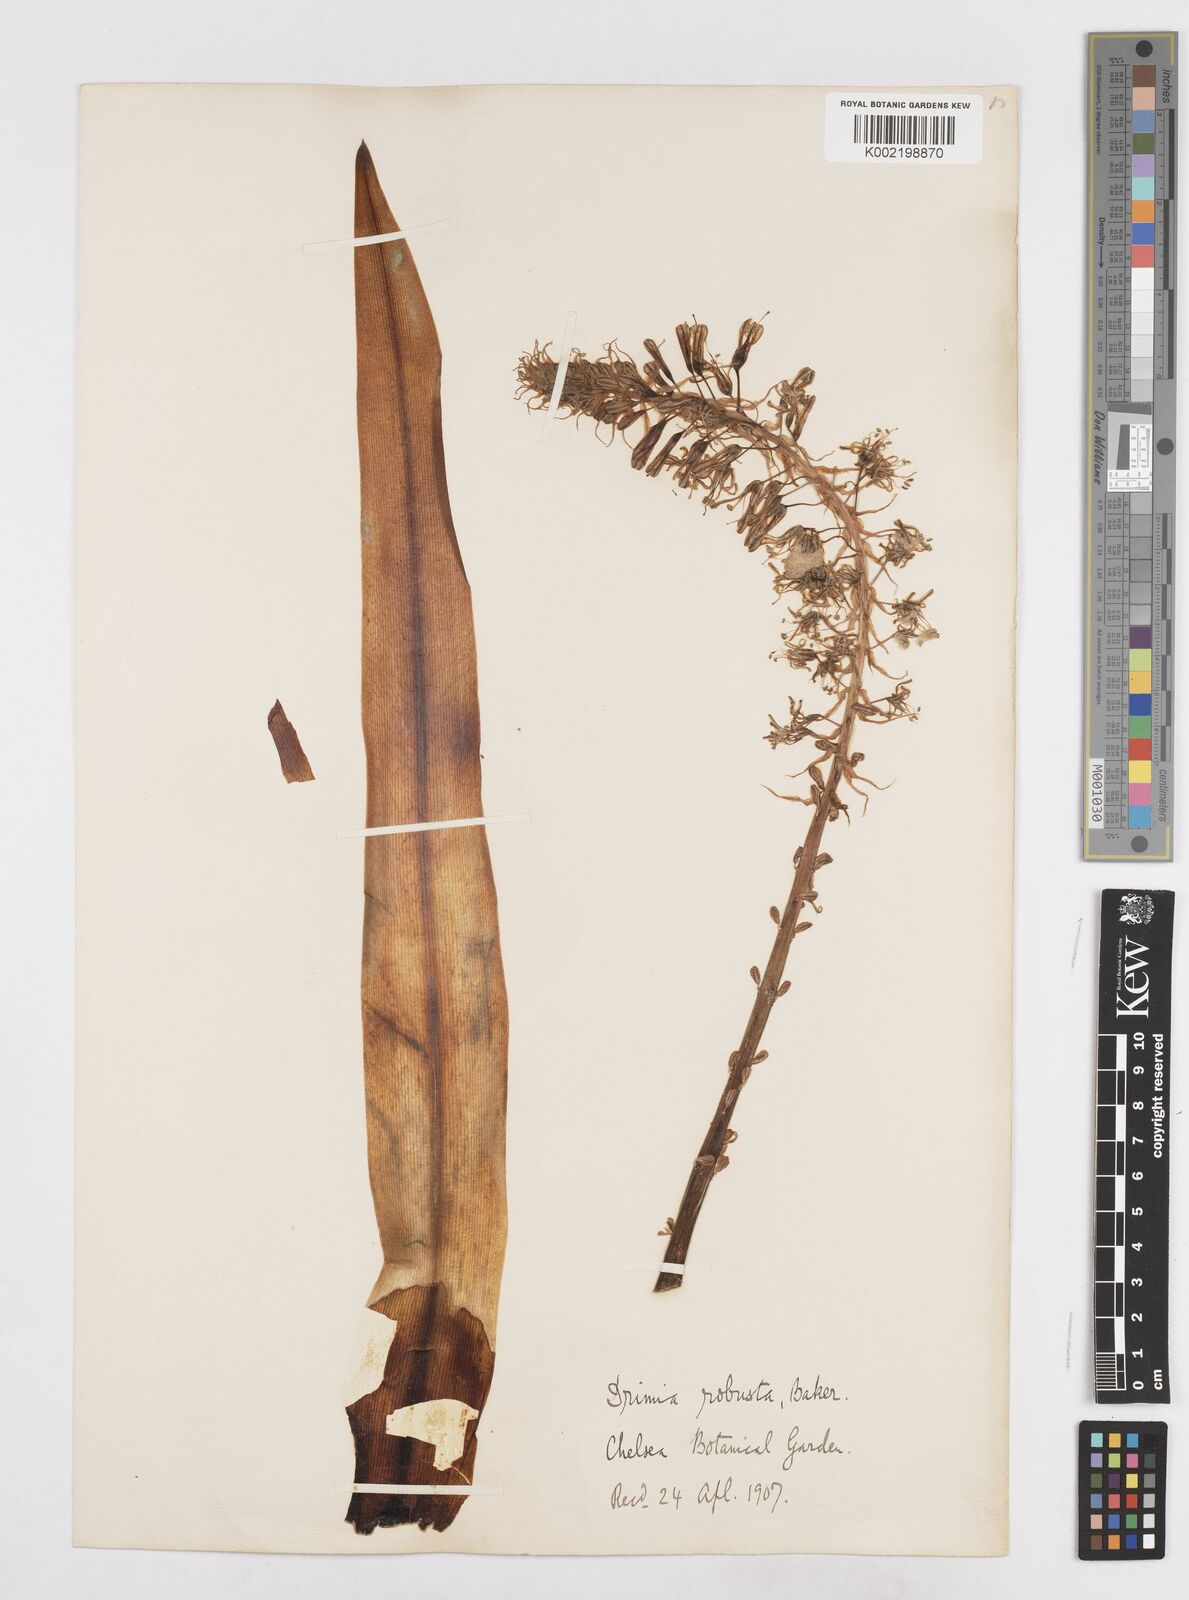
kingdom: Plantae
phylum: Tracheophyta
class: Liliopsida
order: Asparagales
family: Asparagaceae
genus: Drimia
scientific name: Drimia elata
